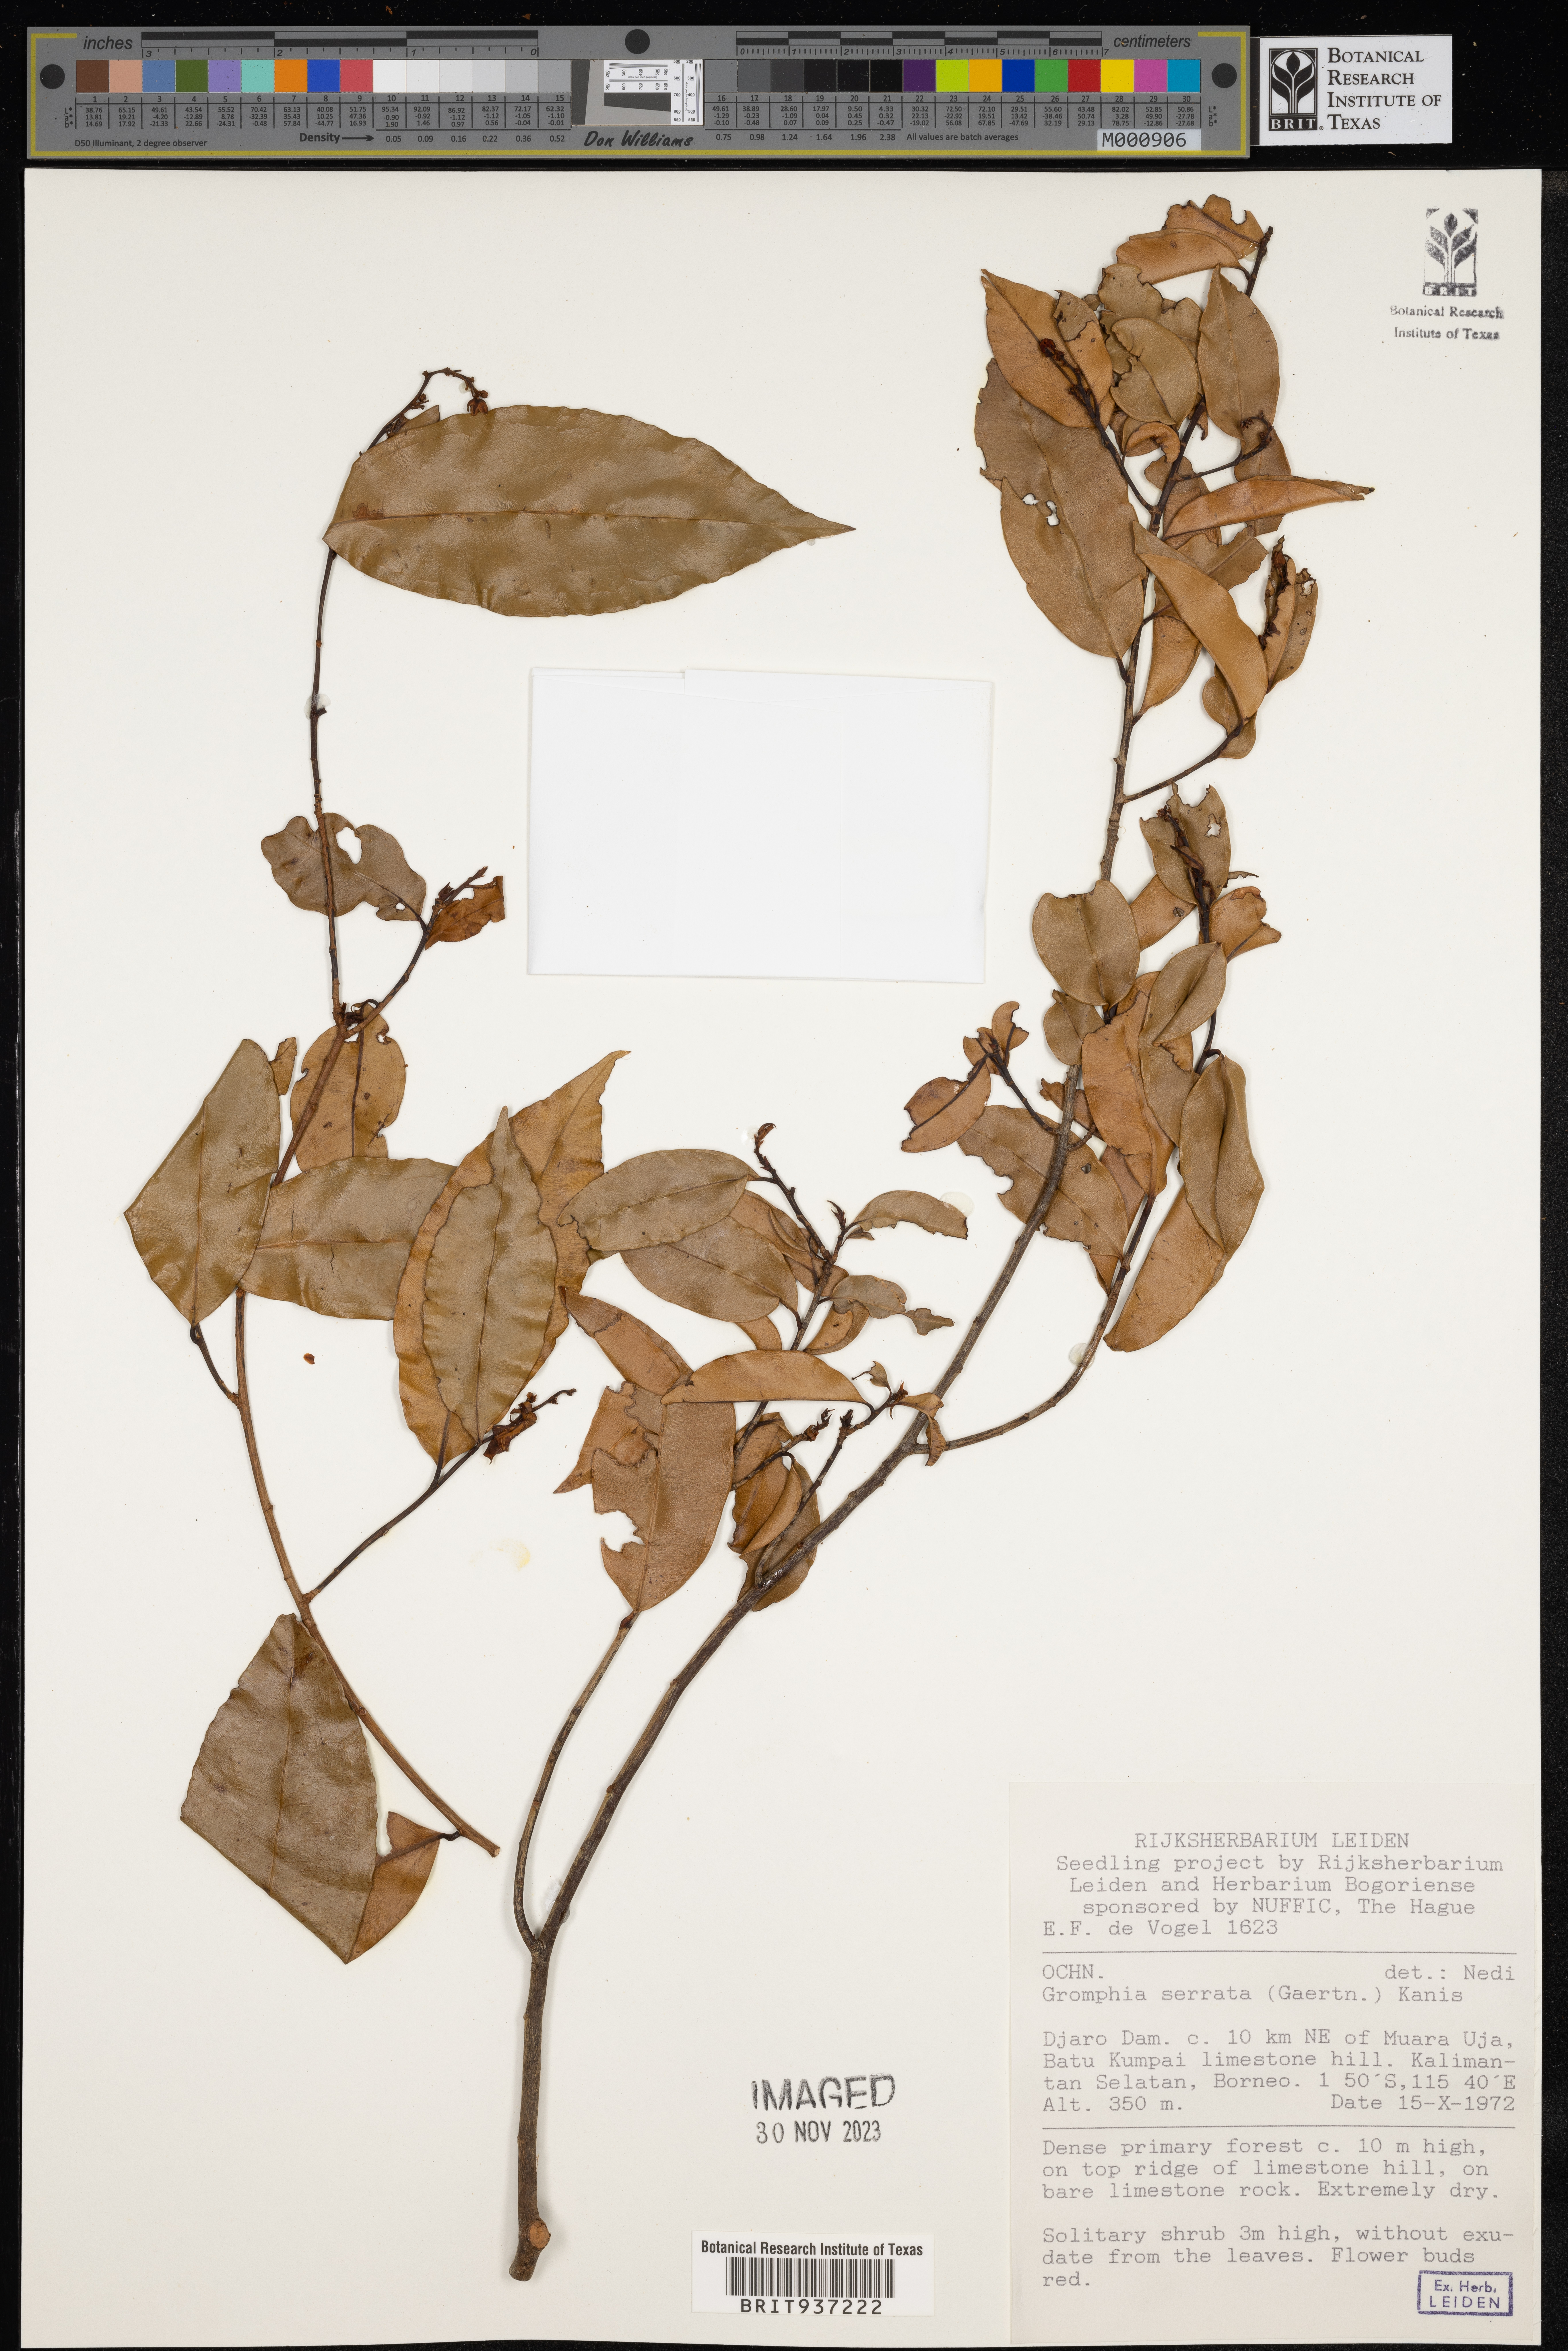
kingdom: Plantae
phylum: Tracheophyta
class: Magnoliopsida
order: Malpighiales
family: Ochnaceae
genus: Gomphia
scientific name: Gomphia
